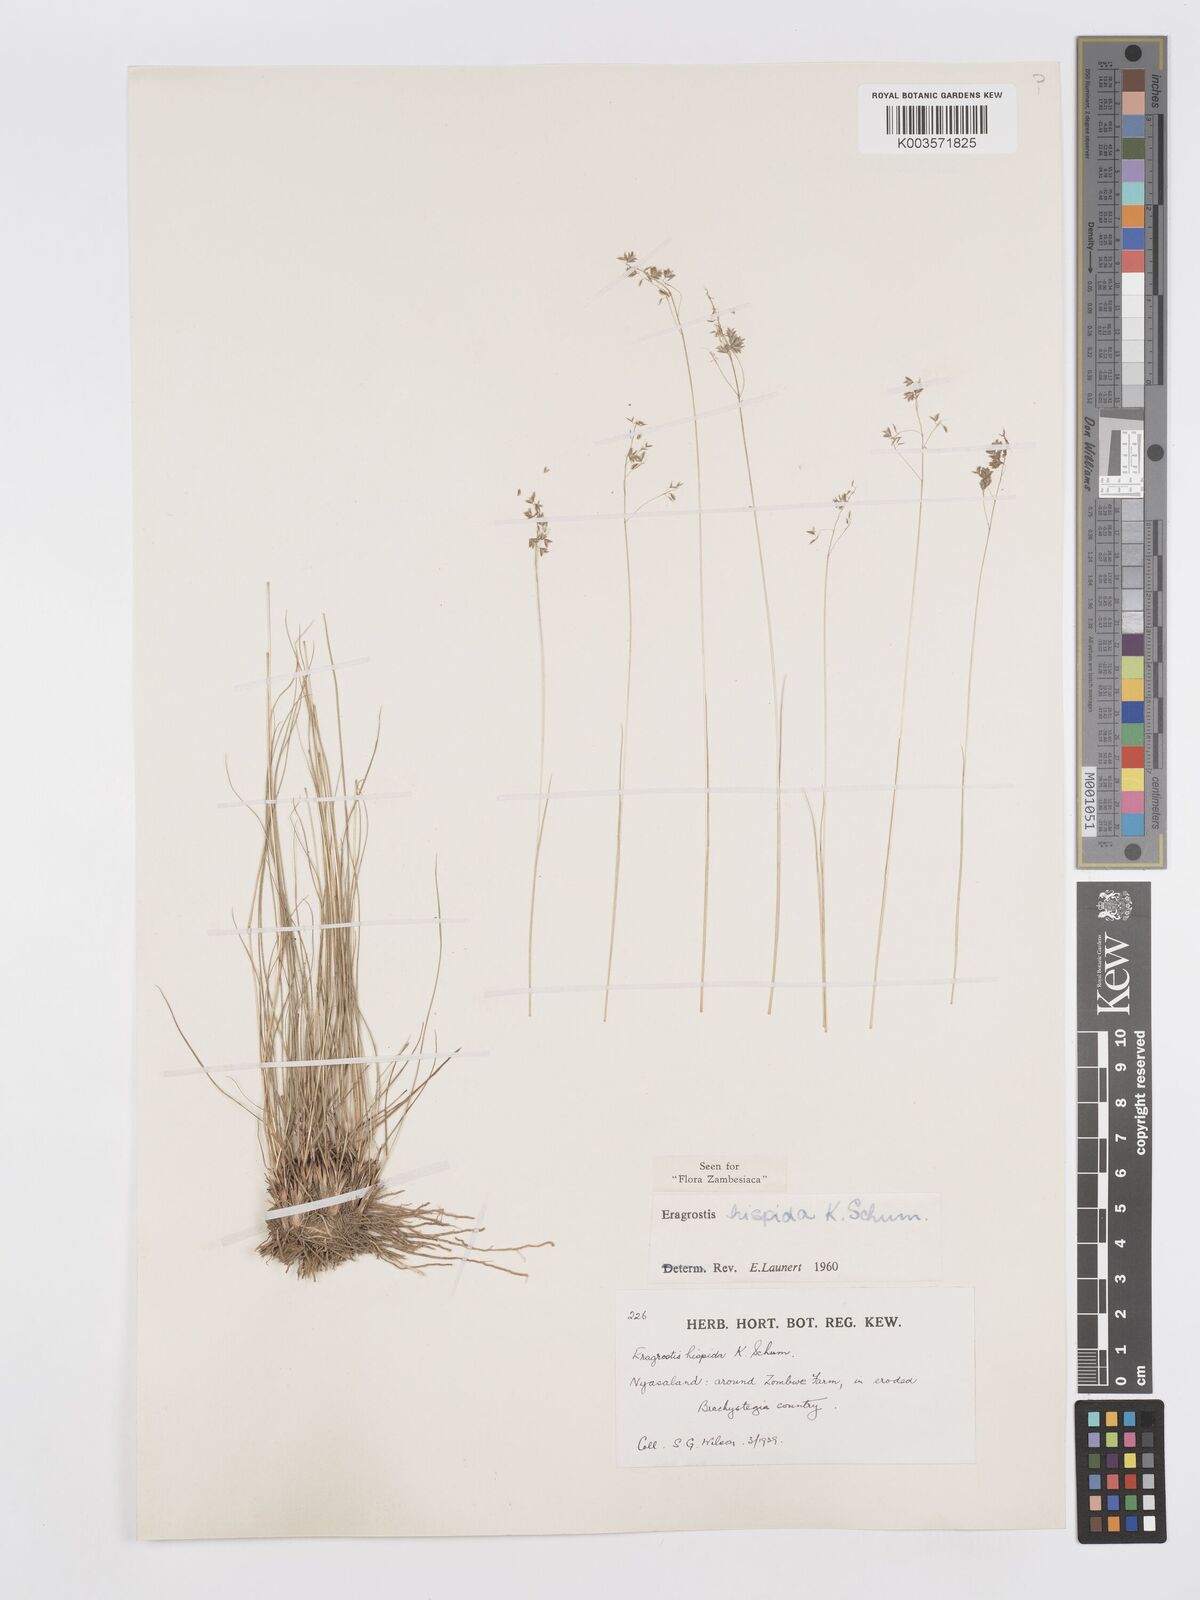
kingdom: Plantae
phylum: Tracheophyta
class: Liliopsida
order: Poales
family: Poaceae
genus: Eragrostis
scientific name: Eragrostis hispida
